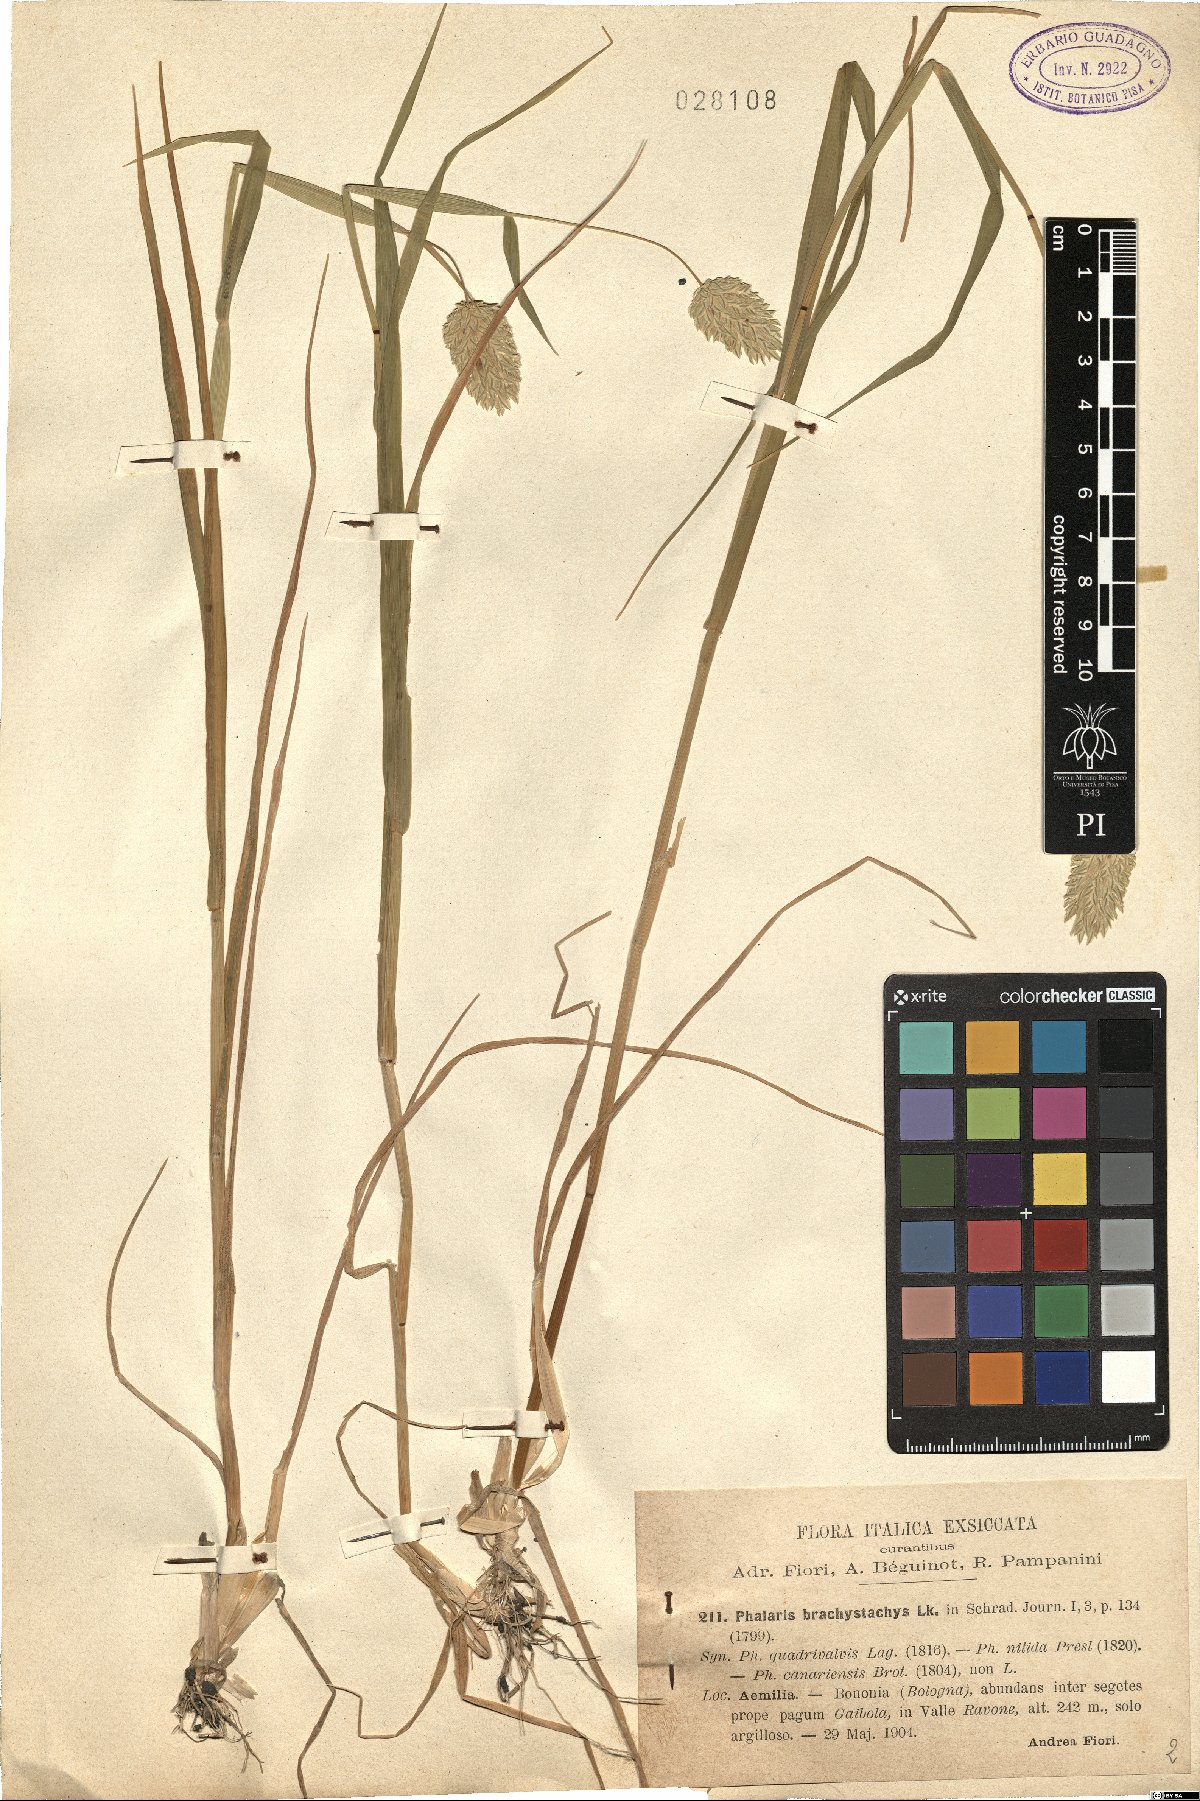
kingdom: Plantae
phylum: Tracheophyta
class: Liliopsida
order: Poales
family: Poaceae
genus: Phalaris
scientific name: Phalaris brachystachys
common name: Confused canary-grass
